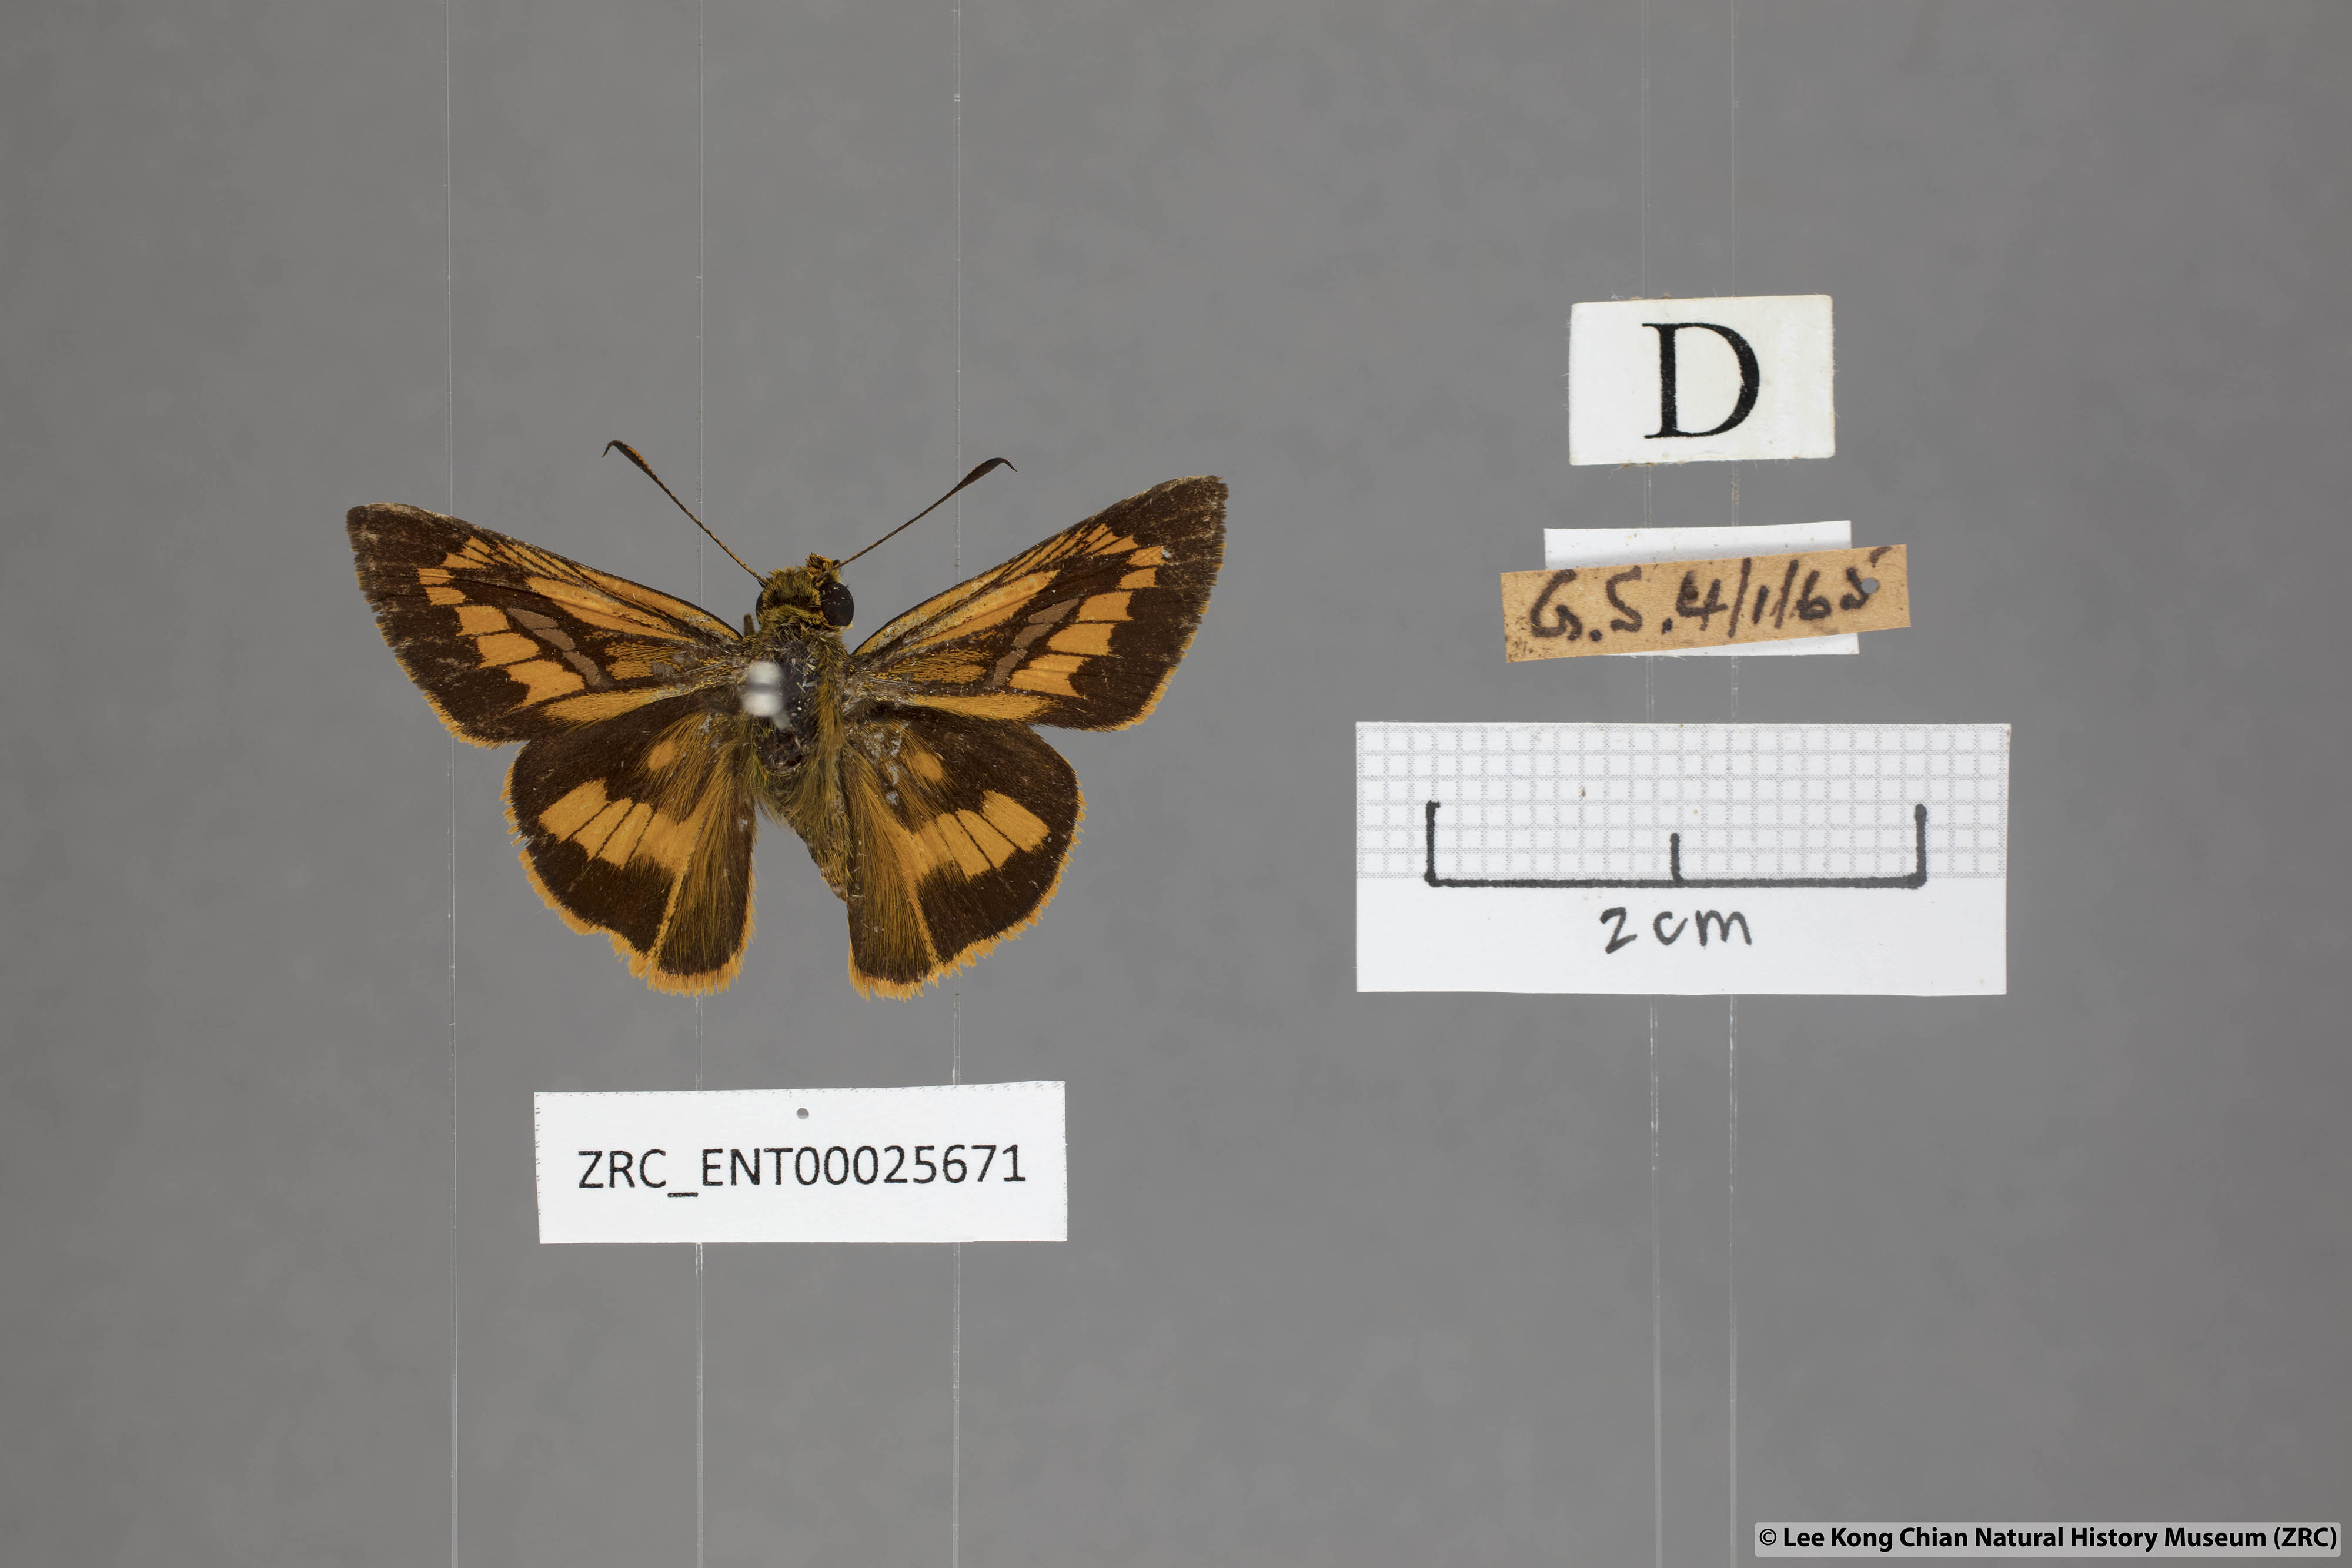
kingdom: Animalia
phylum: Arthropoda
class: Insecta
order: Lepidoptera
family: Hesperiidae
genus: Telicota
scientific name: Telicota hilda
